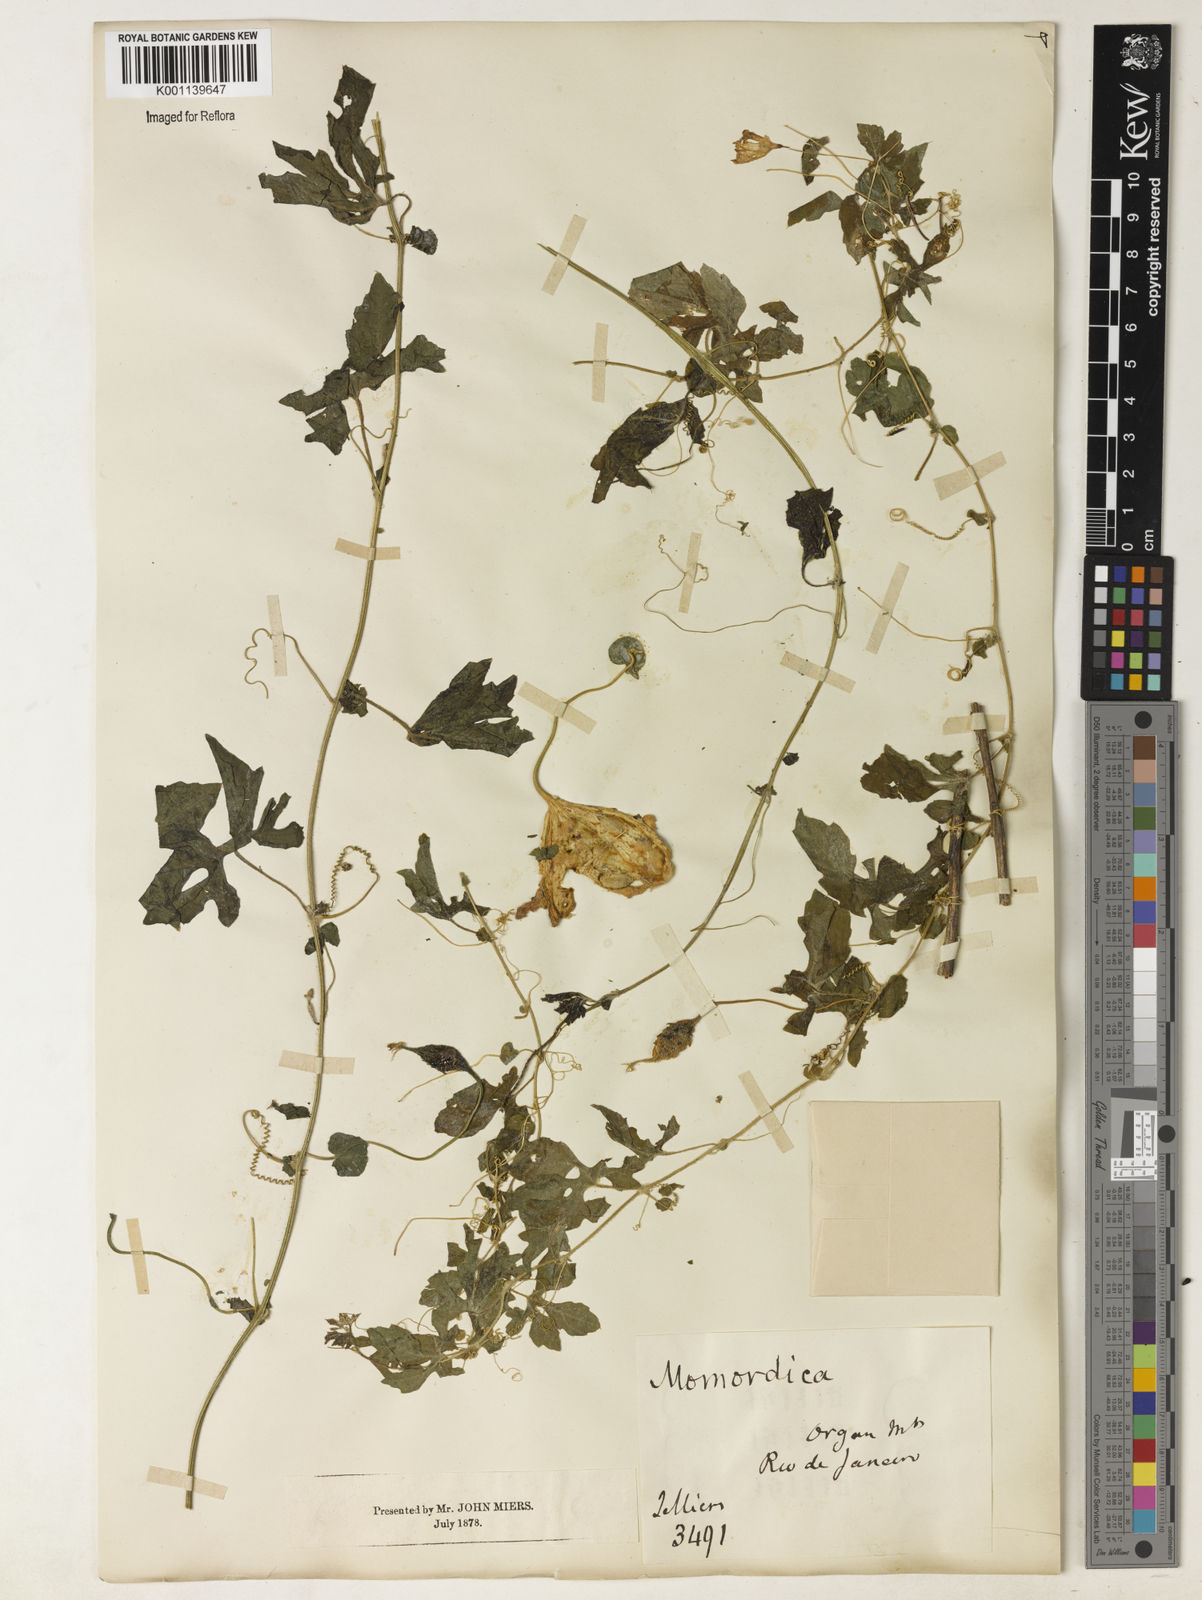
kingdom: Plantae
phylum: Tracheophyta
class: Magnoliopsida
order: Cucurbitales
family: Cucurbitaceae
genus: Momordica
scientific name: Momordica charantia
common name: Balsampear
